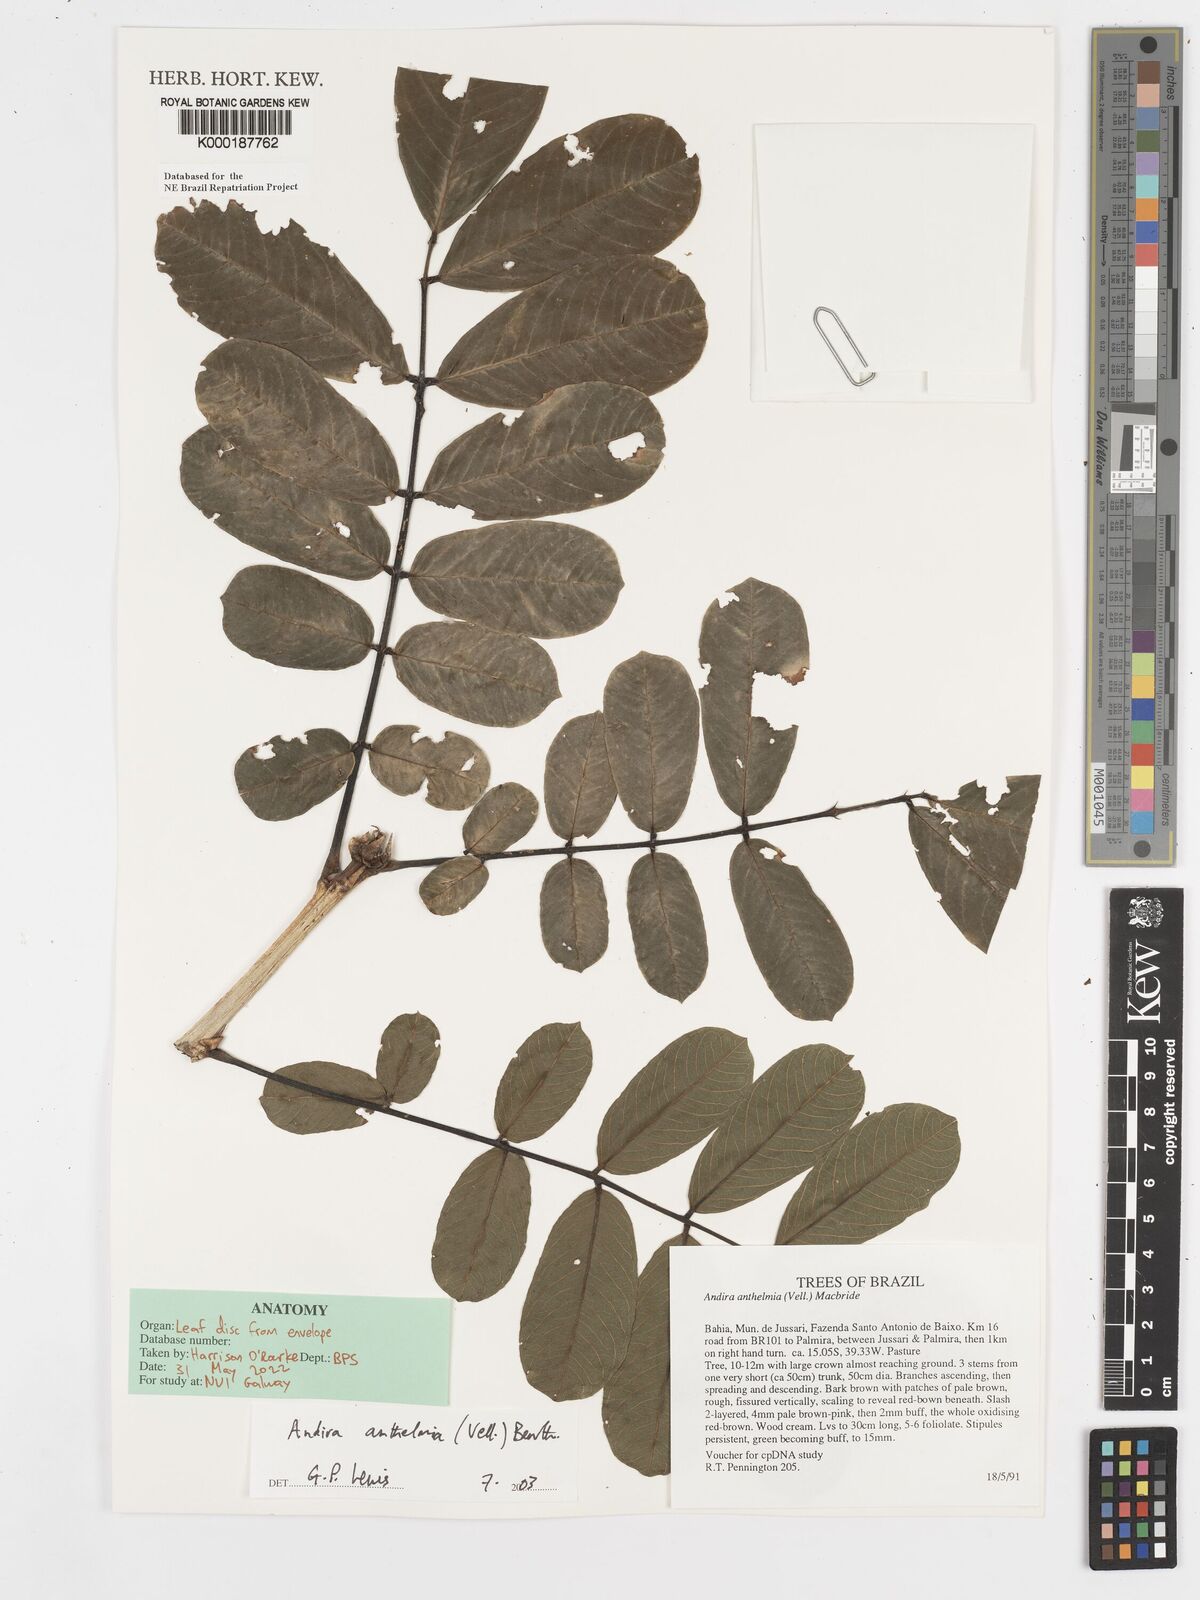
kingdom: Plantae
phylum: Tracheophyta
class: Magnoliopsida
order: Fabales
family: Fabaceae
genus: Andira
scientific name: Andira
